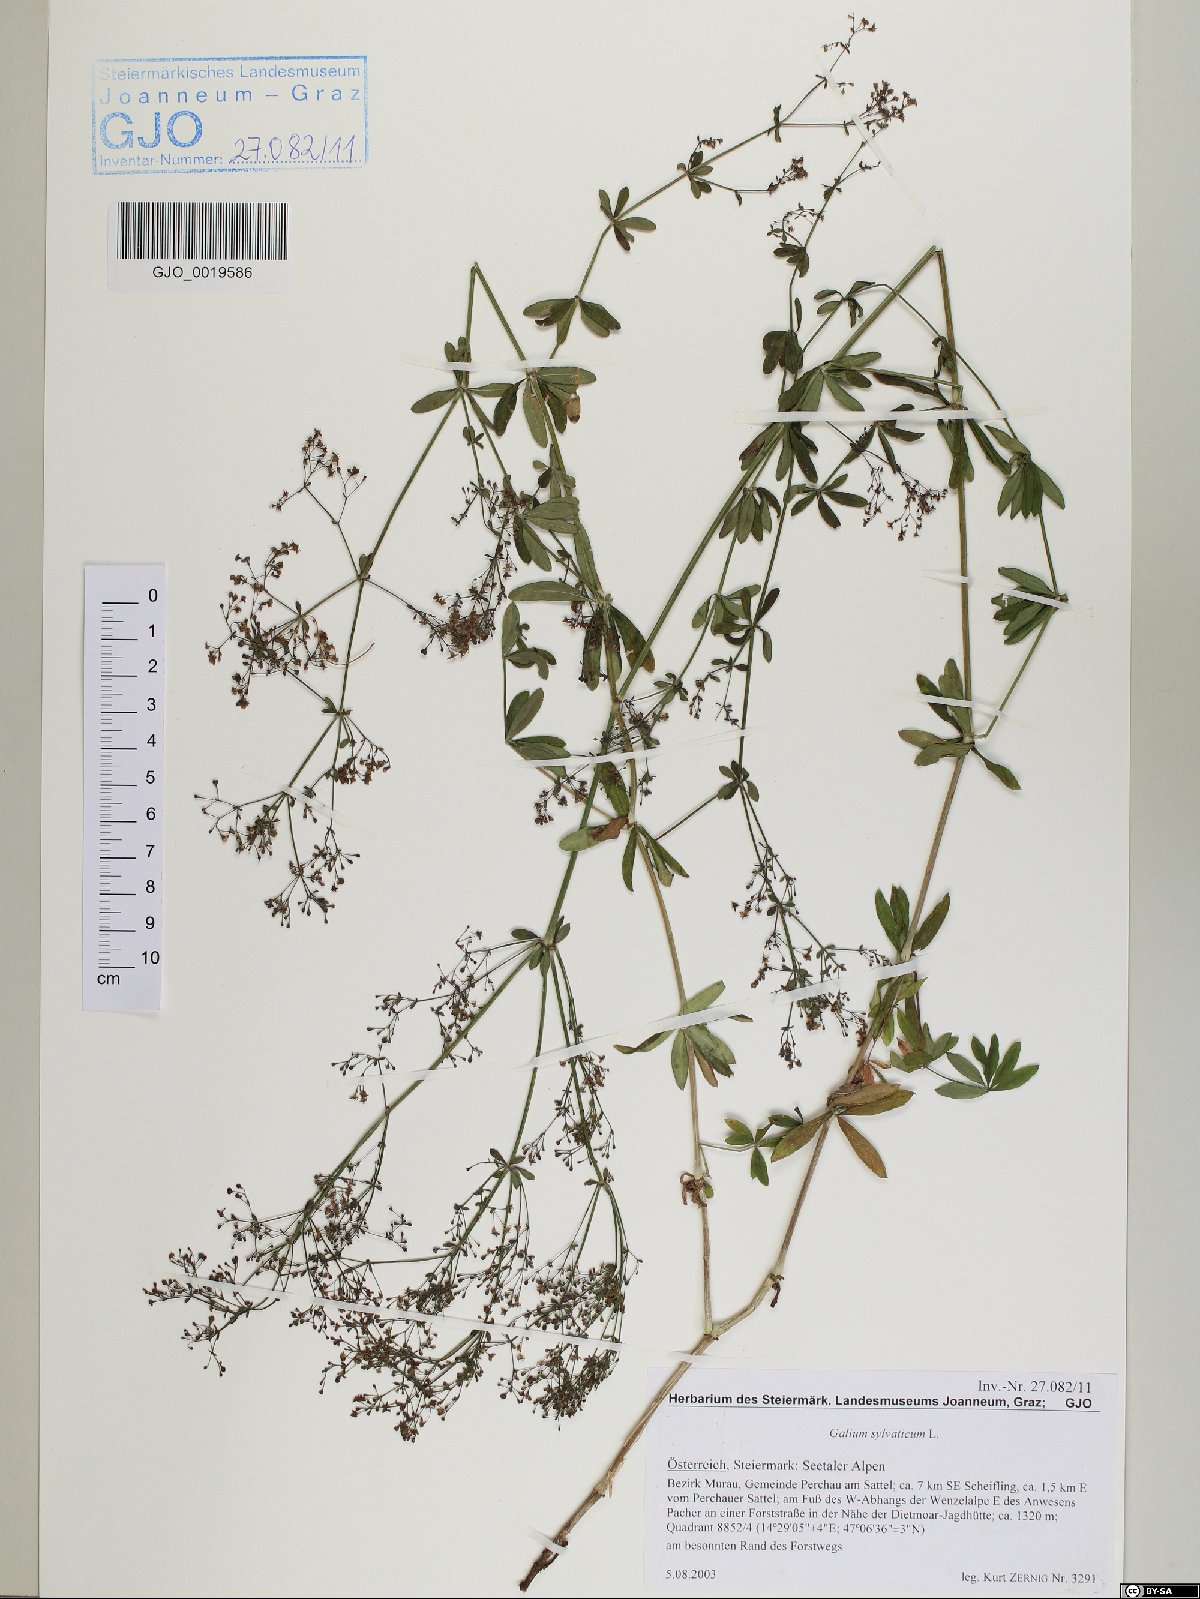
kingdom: Plantae
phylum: Tracheophyta
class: Magnoliopsida
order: Gentianales
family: Rubiaceae
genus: Galium
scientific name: Galium sylvaticum
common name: Wood bedstraw
